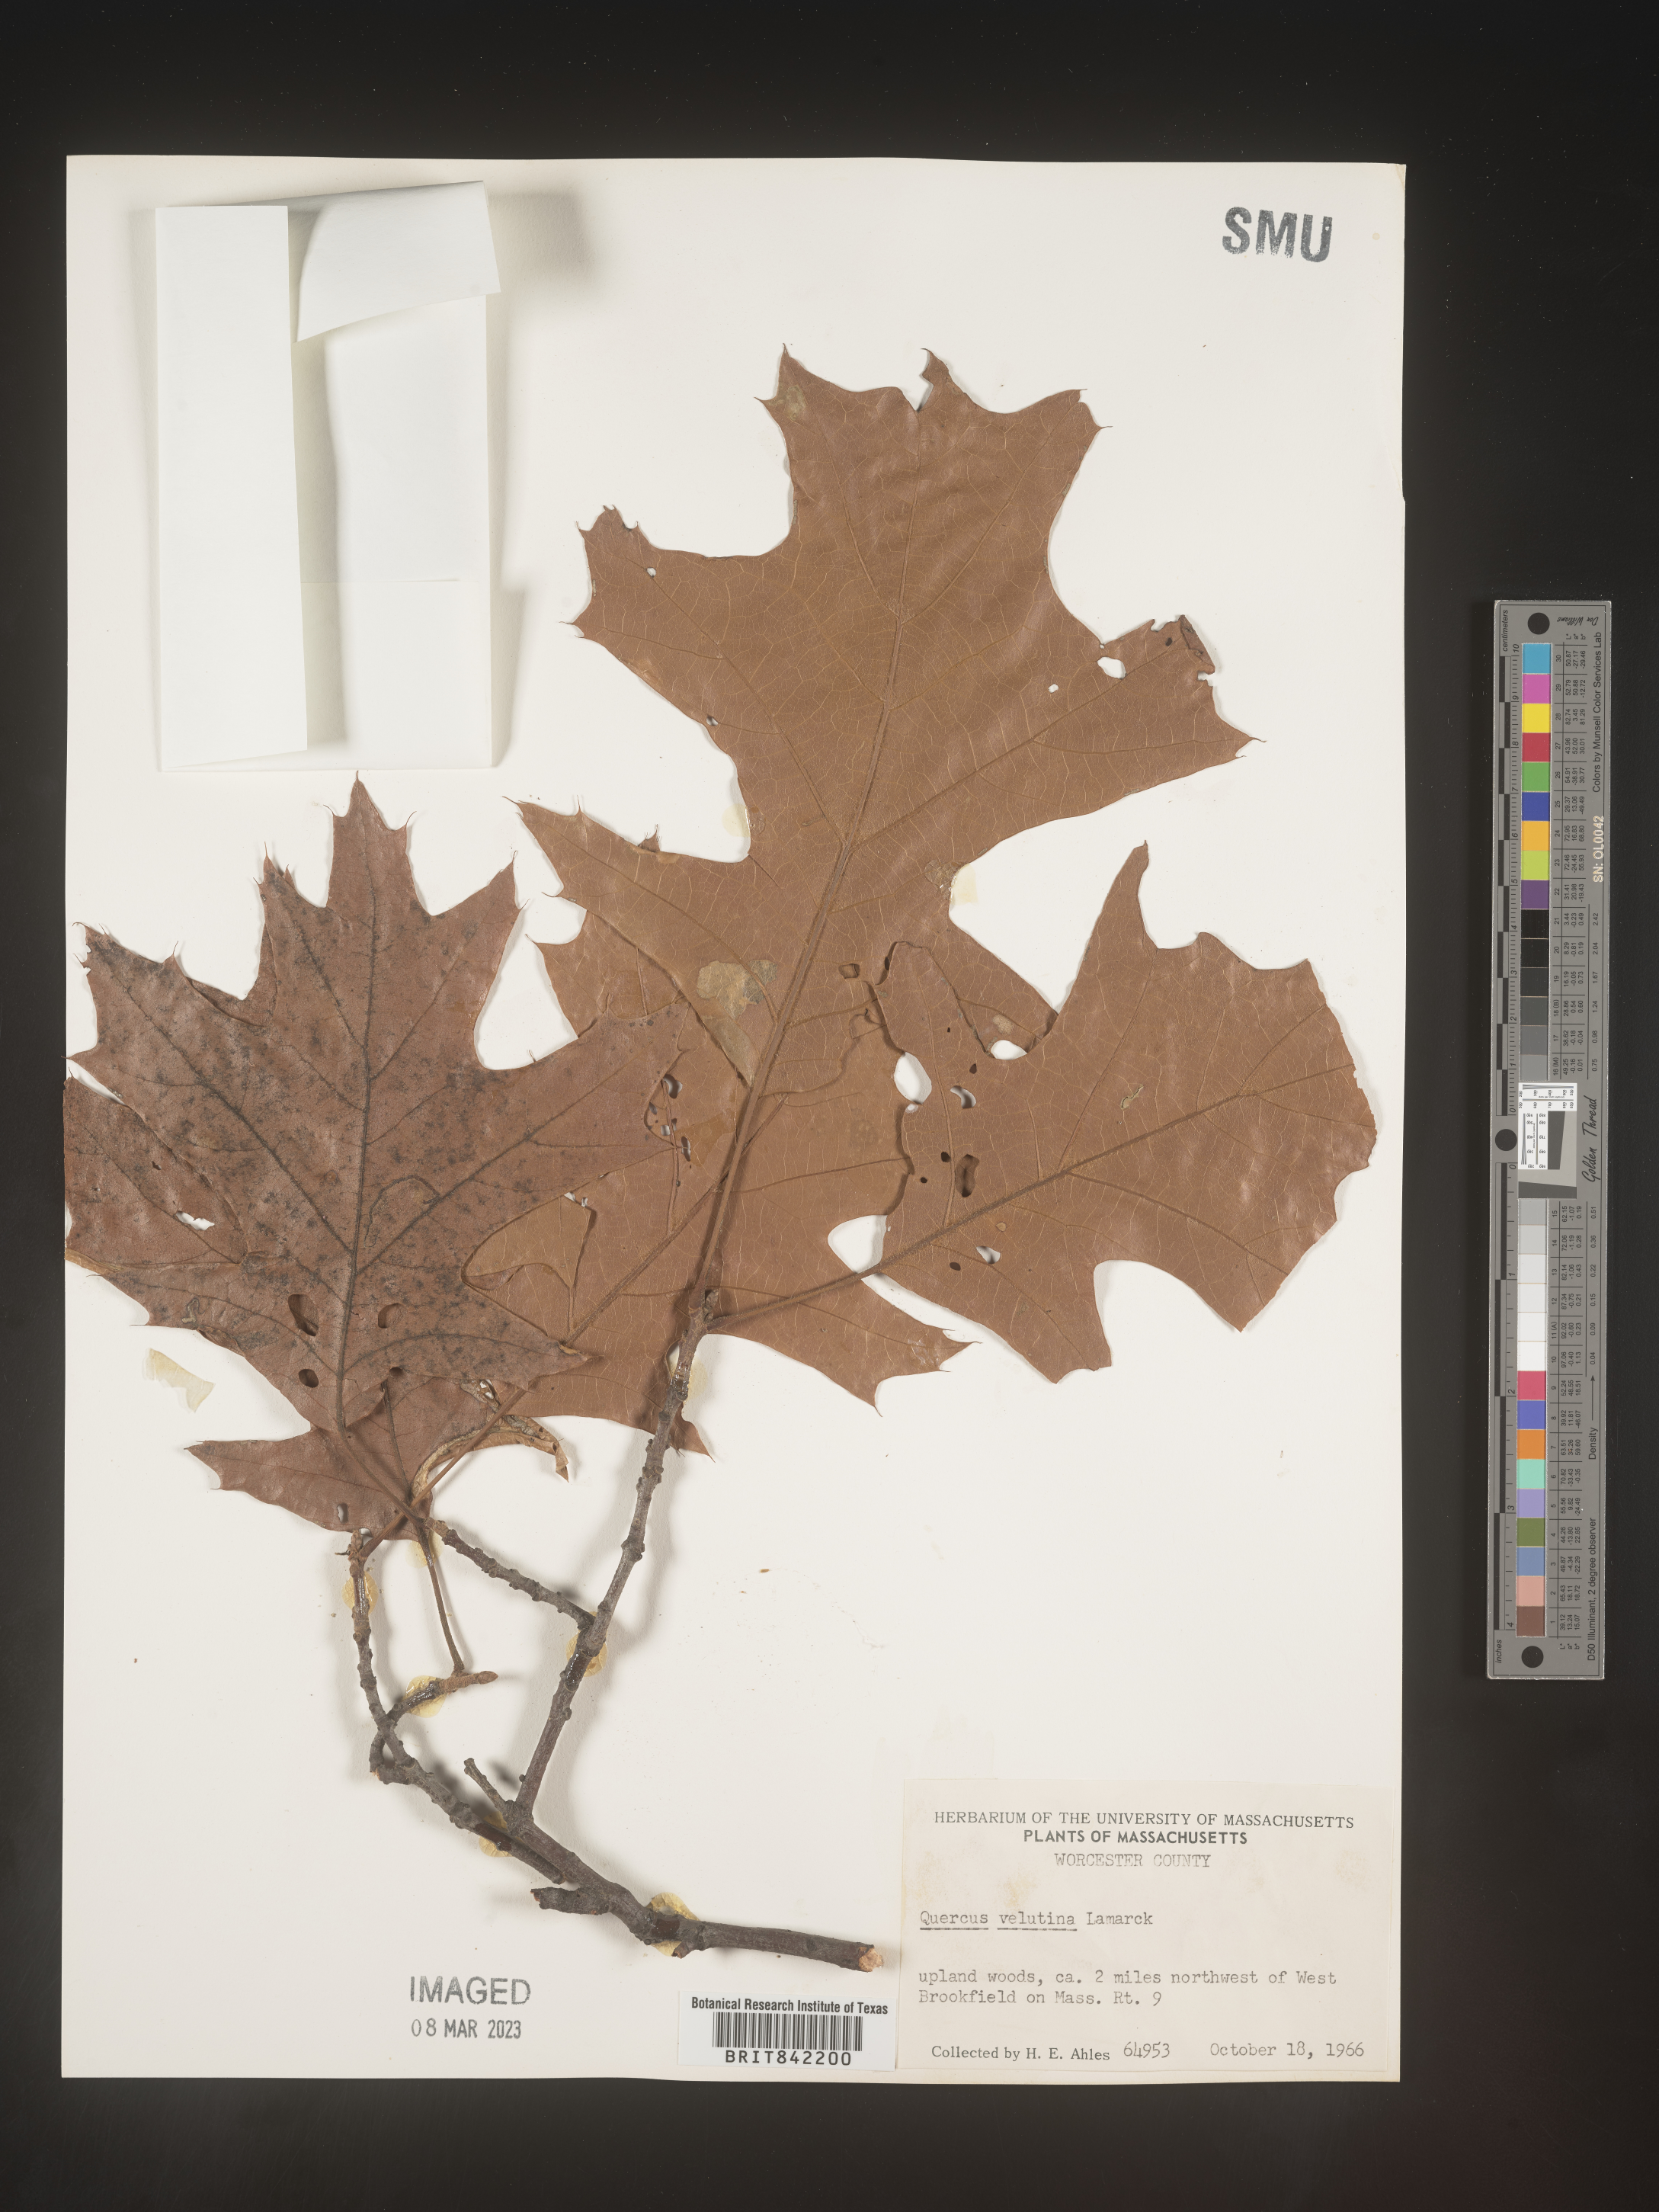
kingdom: Plantae
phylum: Tracheophyta
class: Magnoliopsida
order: Fagales
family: Fagaceae
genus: Quercus
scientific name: Quercus velutina
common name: Black oak
